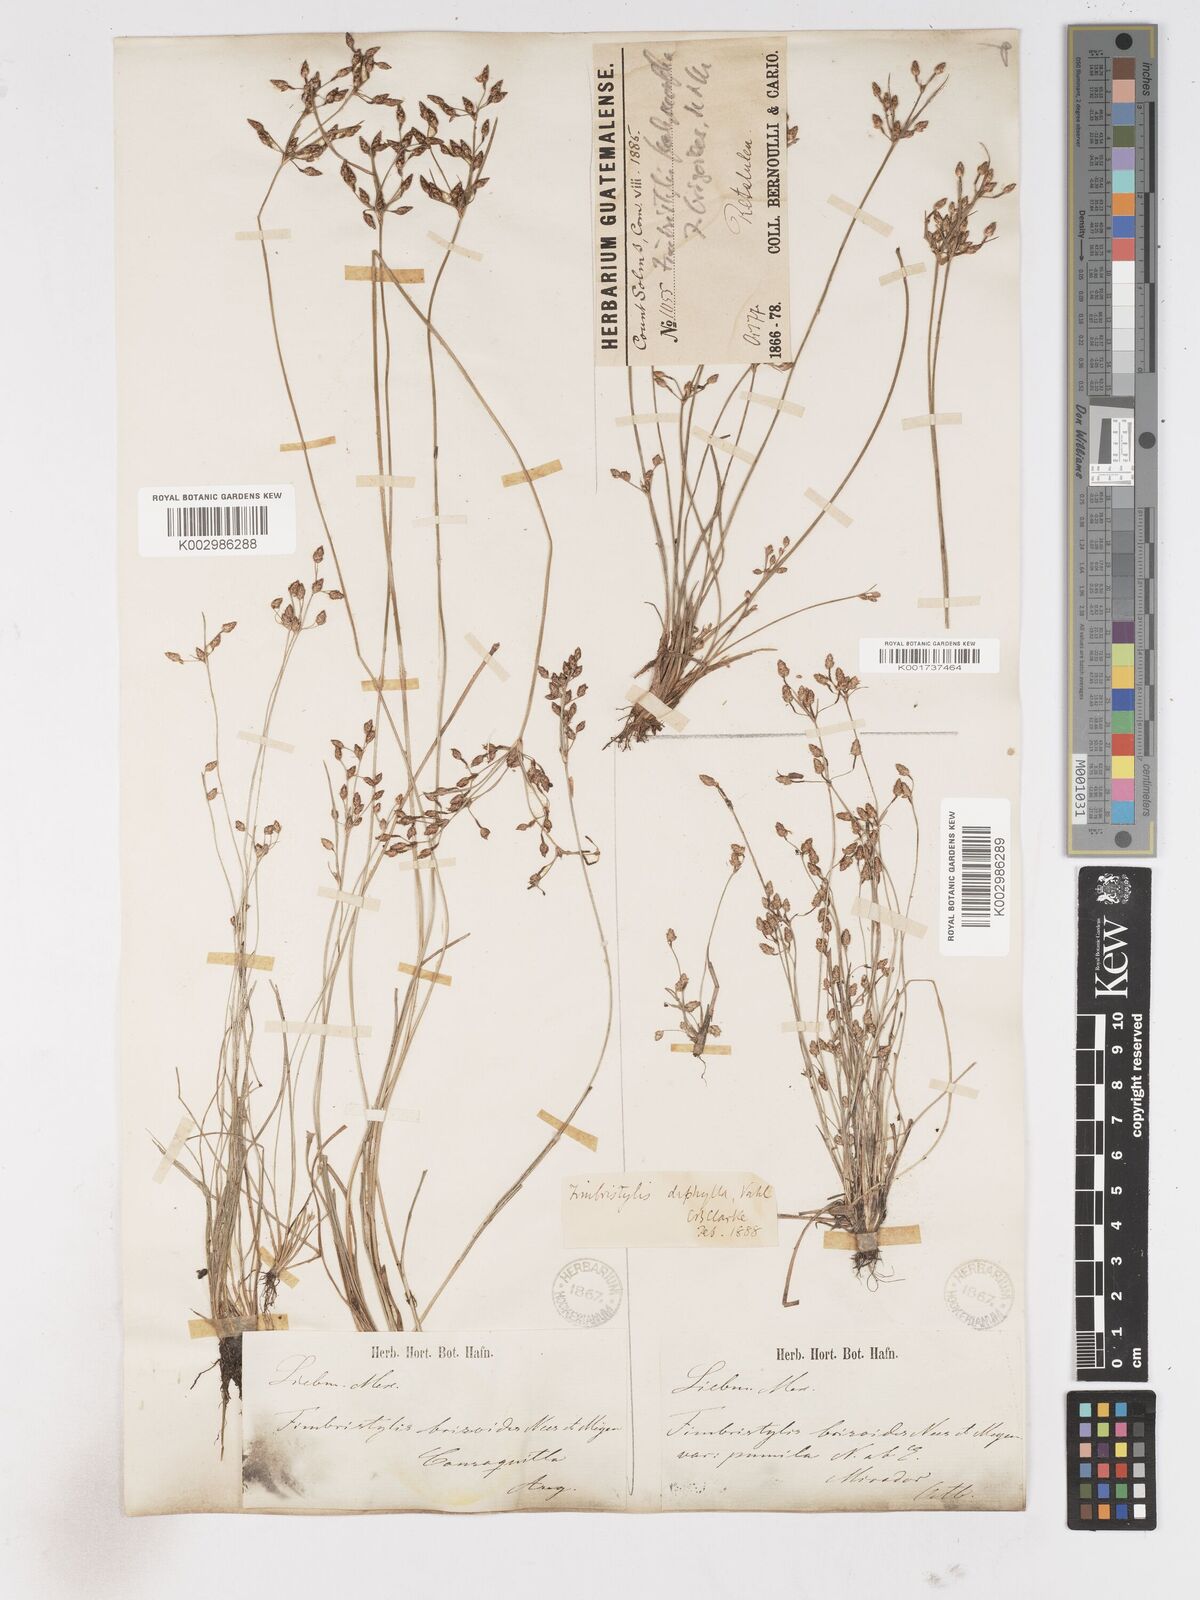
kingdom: Plantae
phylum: Tracheophyta
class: Liliopsida
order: Poales
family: Cyperaceae
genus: Fimbristylis
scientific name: Fimbristylis dichotoma
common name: Forked fimbry
